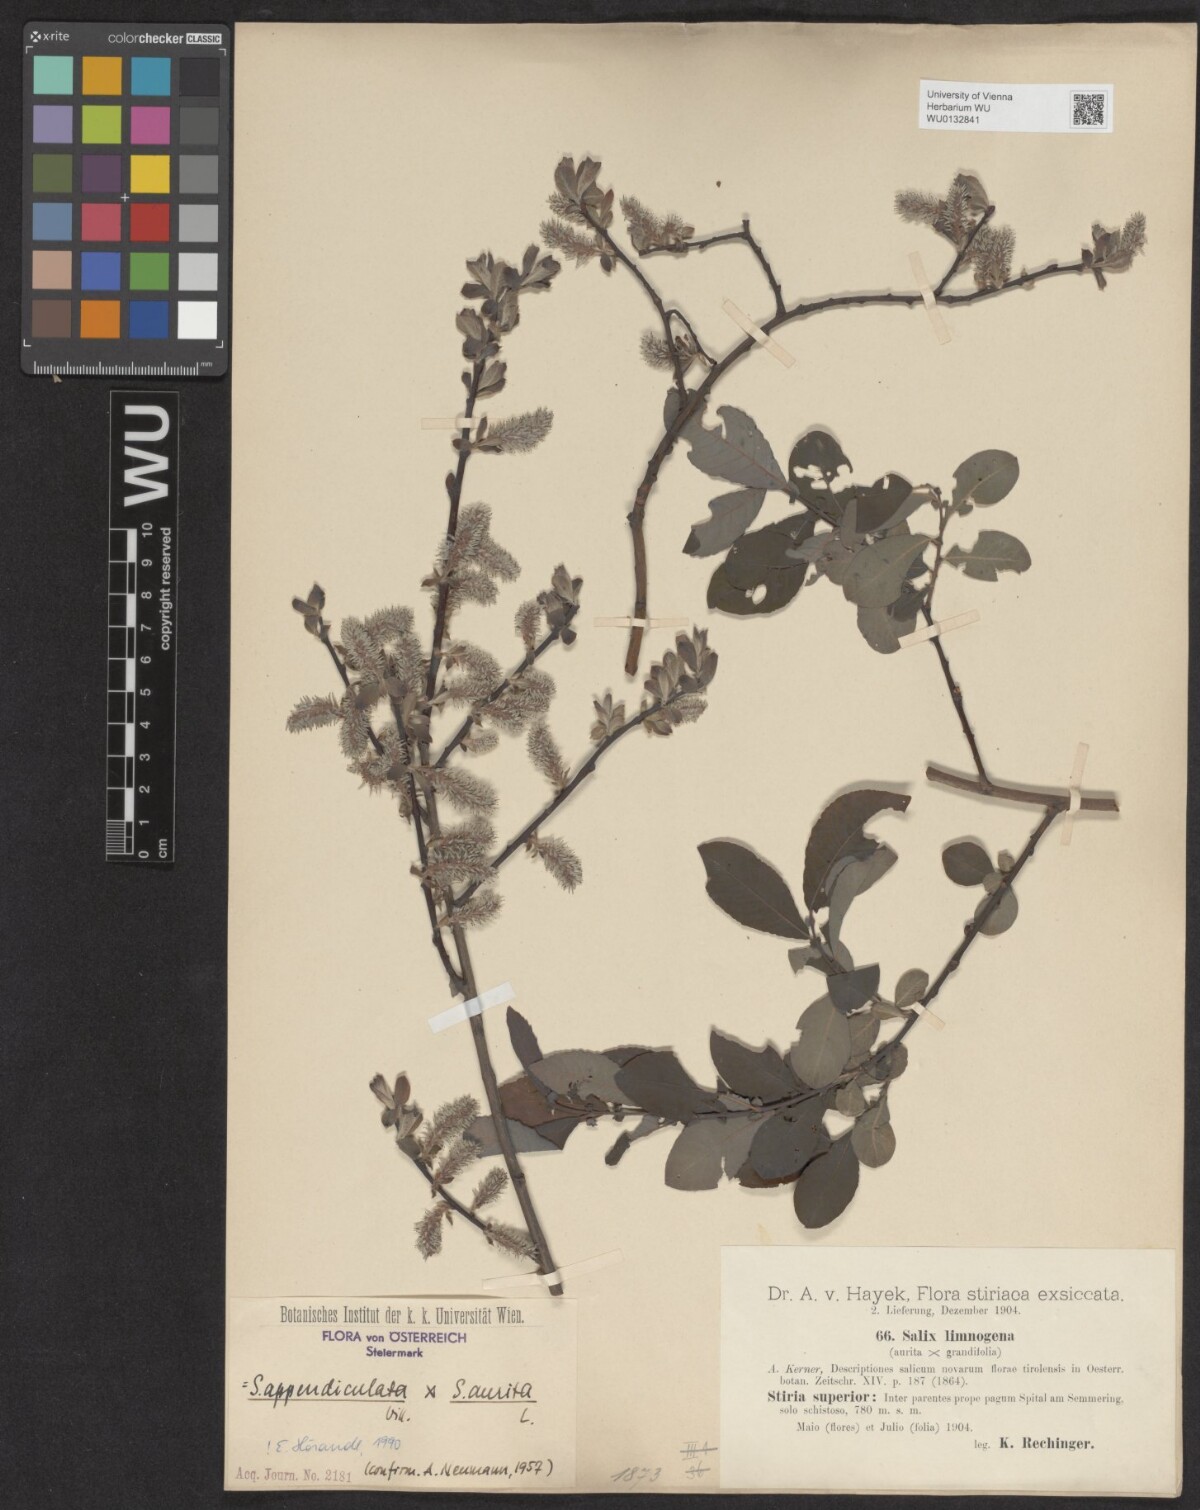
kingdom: Plantae
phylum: Tracheophyta
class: Magnoliopsida
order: Malpighiales
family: Salicaceae
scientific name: Salicaceae
